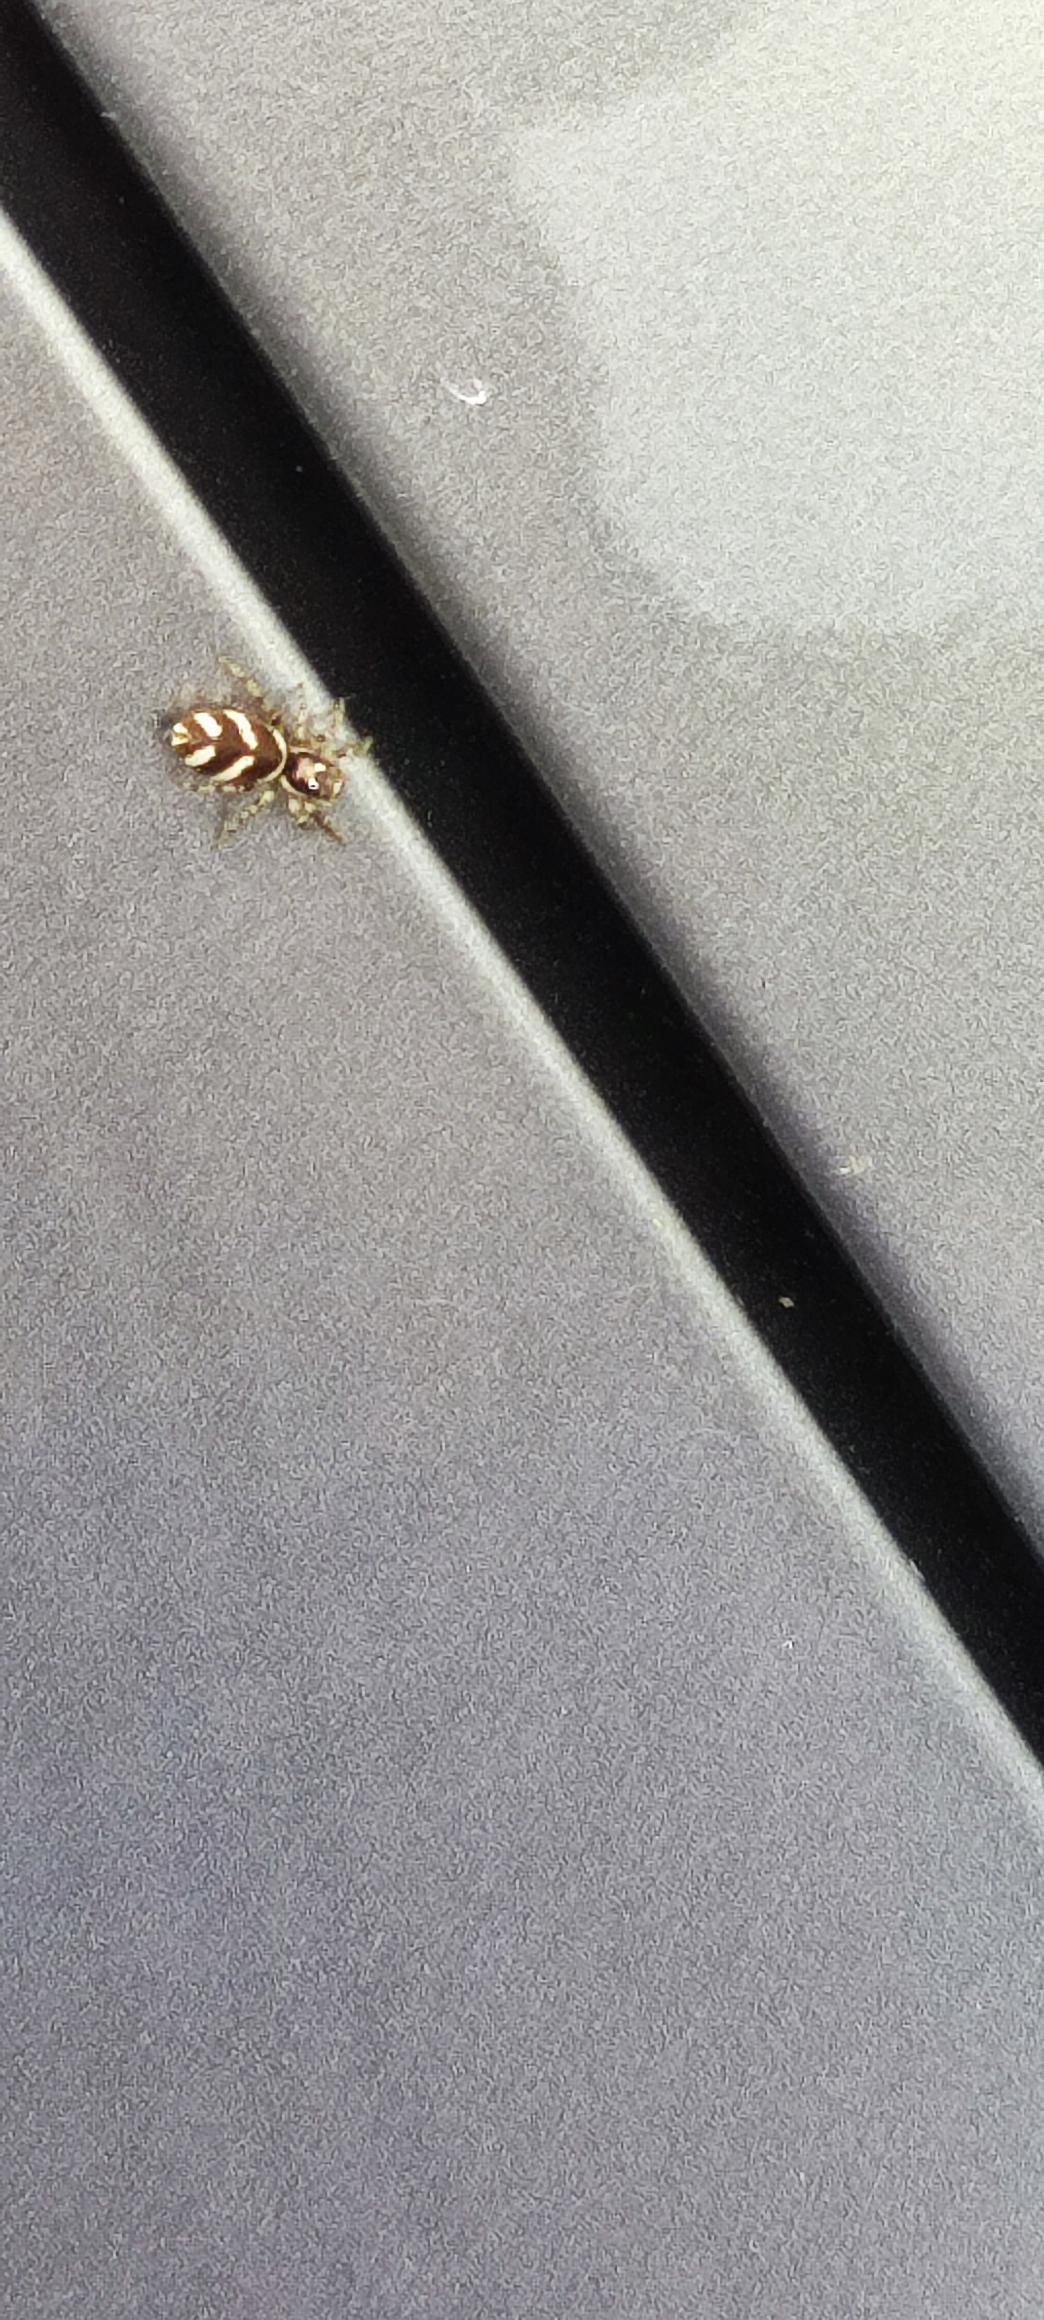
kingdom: Animalia
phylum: Arthropoda
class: Arachnida
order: Araneae
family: Salticidae
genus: Salticus
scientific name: Salticus scenicus
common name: Almindelig zebraedderkop
